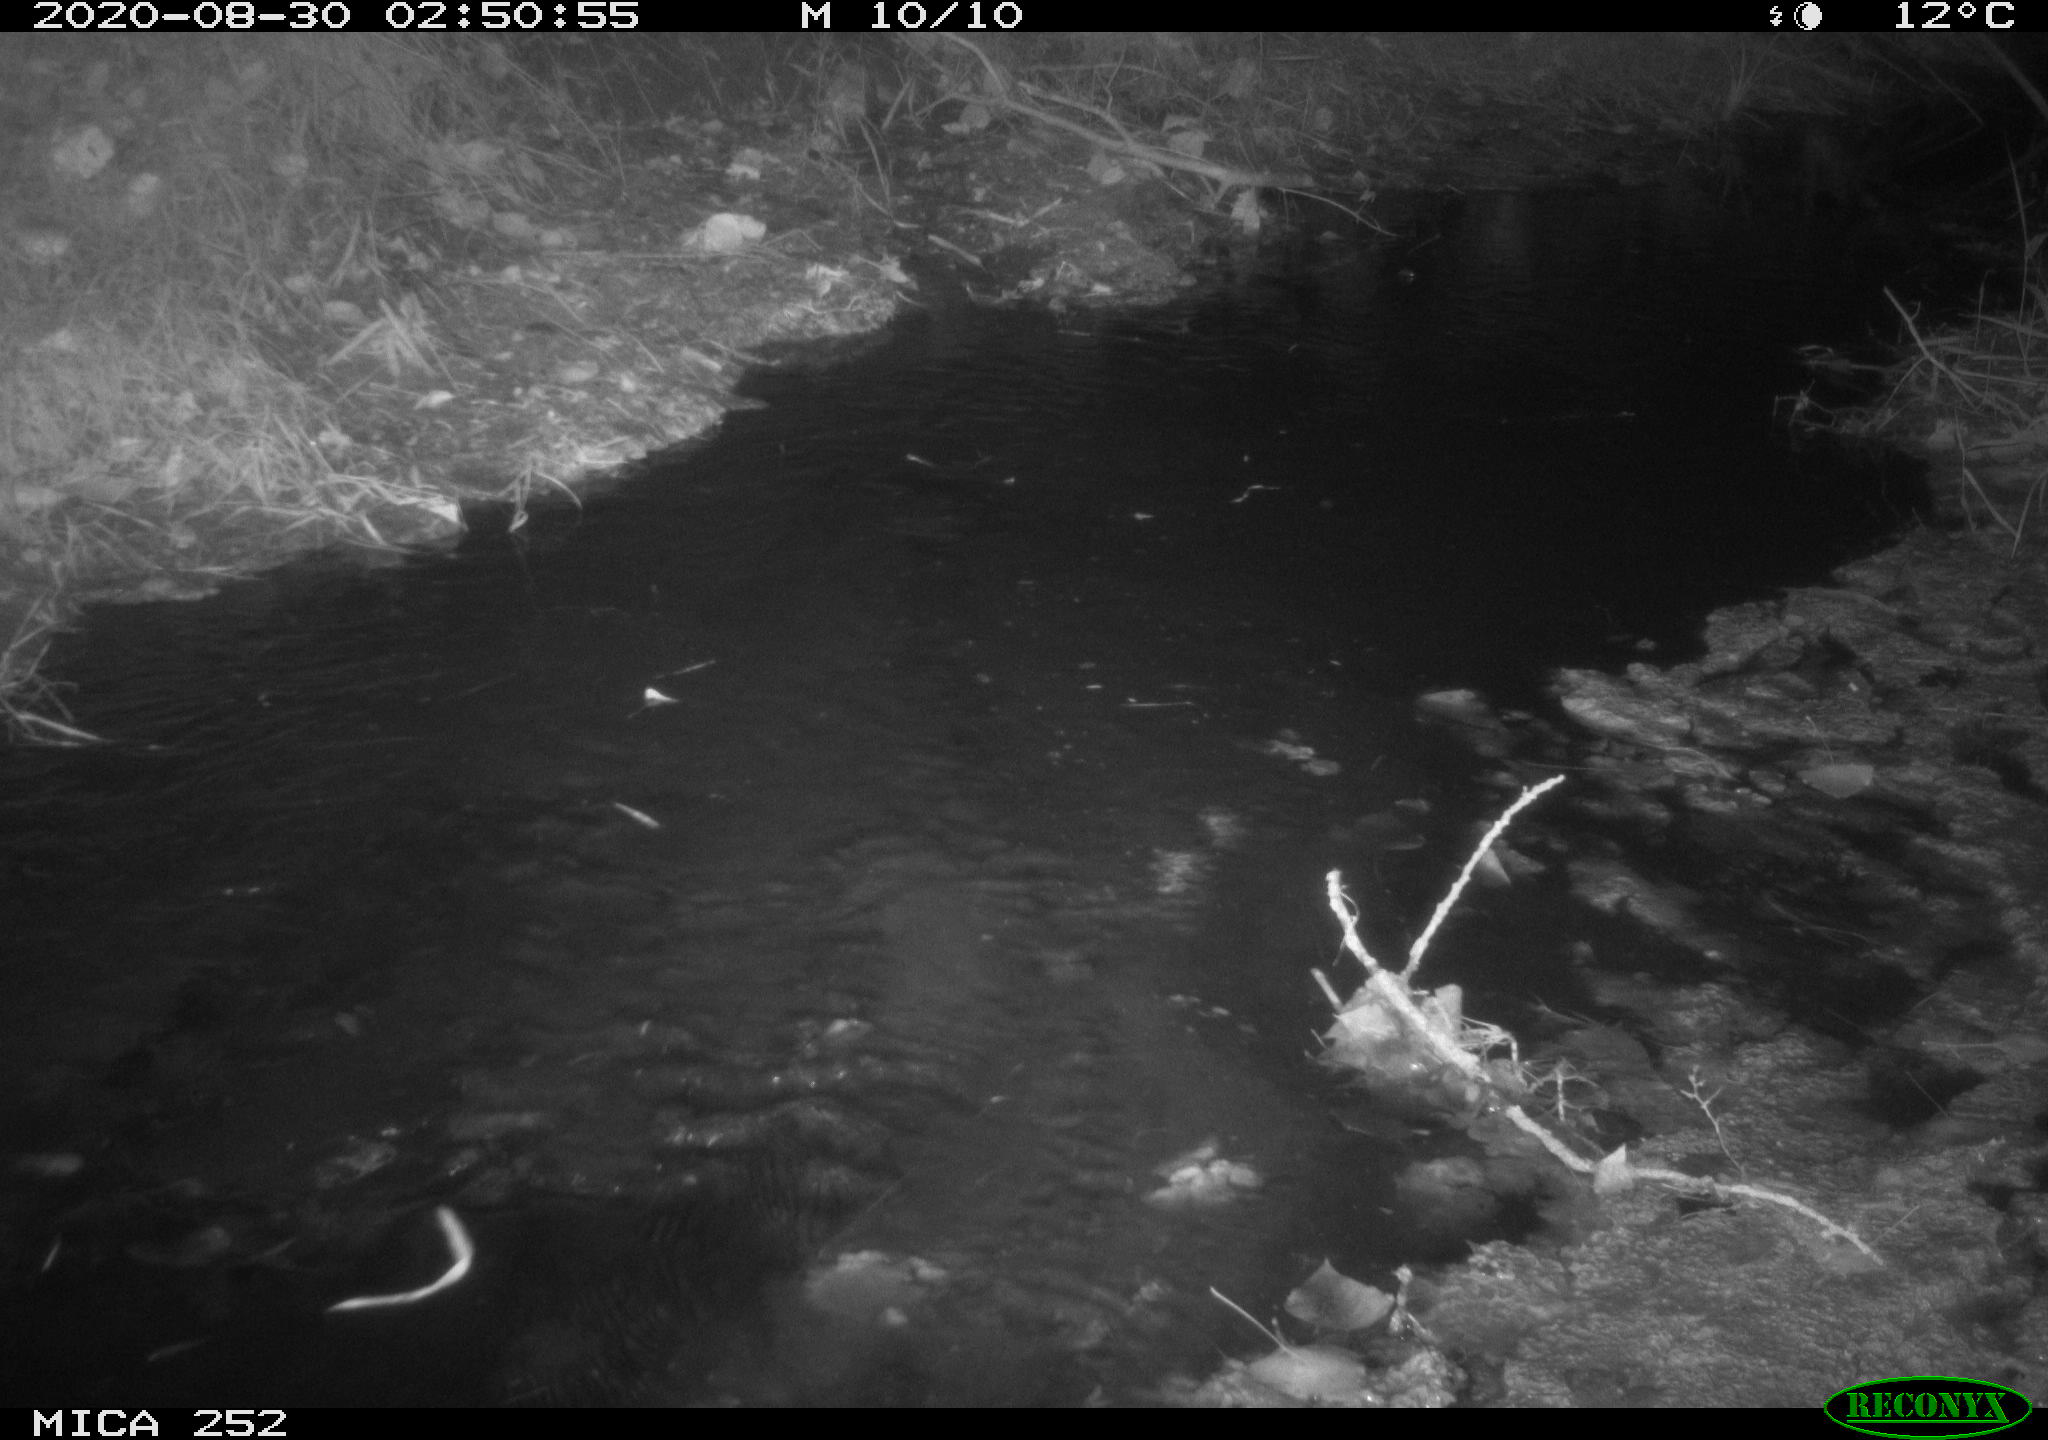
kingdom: Animalia
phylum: Chordata
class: Mammalia
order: Rodentia
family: Castoridae
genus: Castor
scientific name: Castor fiber
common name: Eurasian beaver
